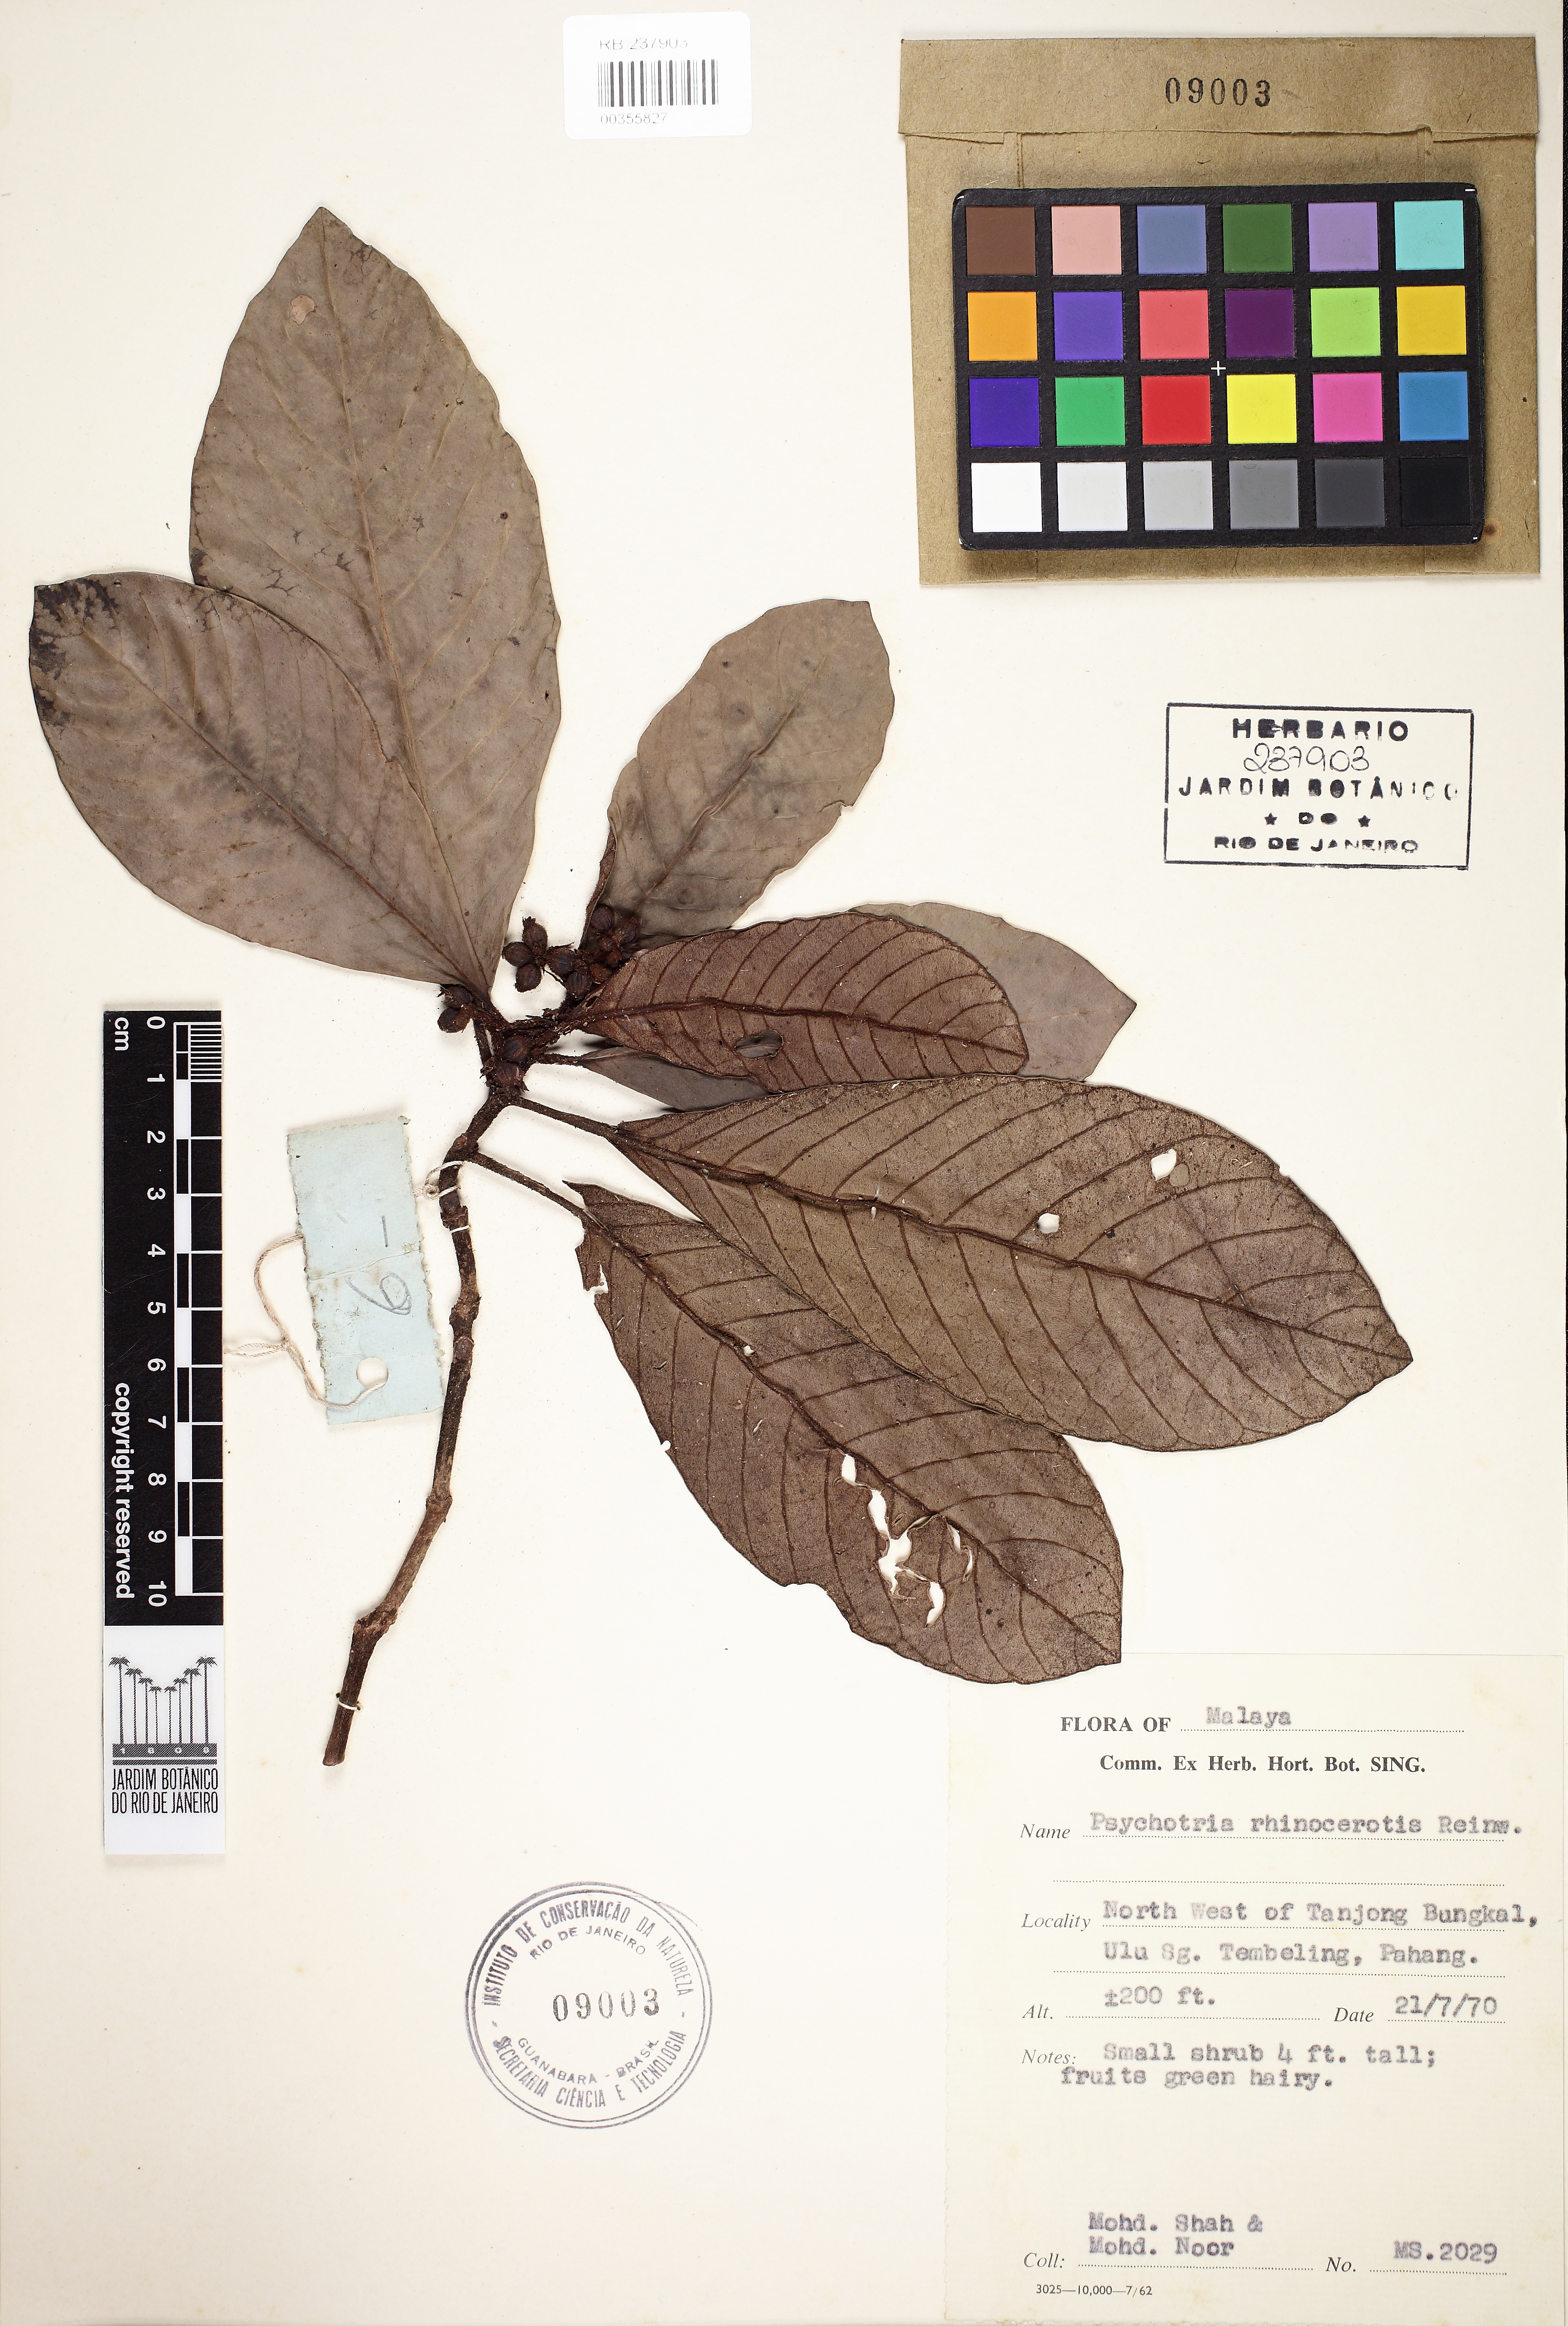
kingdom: Plantae
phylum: Tracheophyta
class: Magnoliopsida
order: Gentianales
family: Rubiaceae
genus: Psychotria
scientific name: Psychotria rhinocerotis
